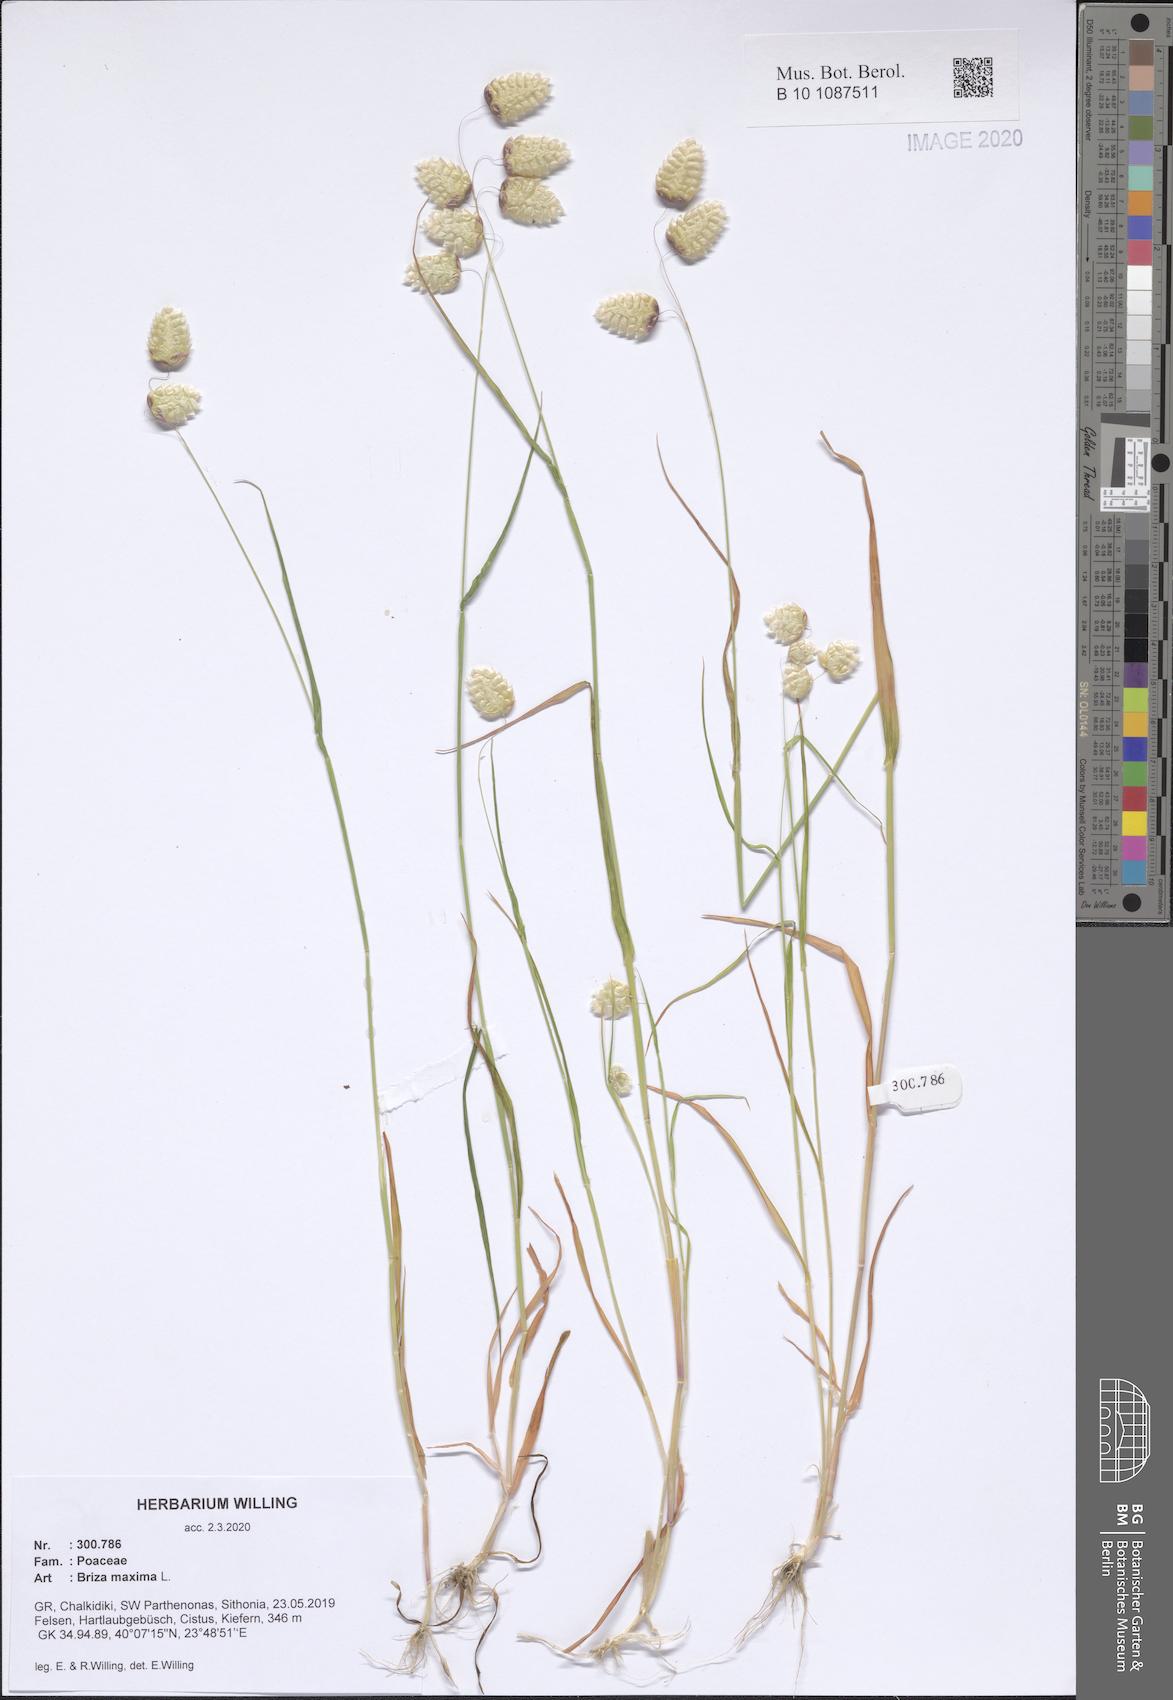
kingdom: Plantae
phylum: Tracheophyta
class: Liliopsida
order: Poales
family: Poaceae
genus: Briza
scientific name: Briza maxima
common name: Big quakinggrass
